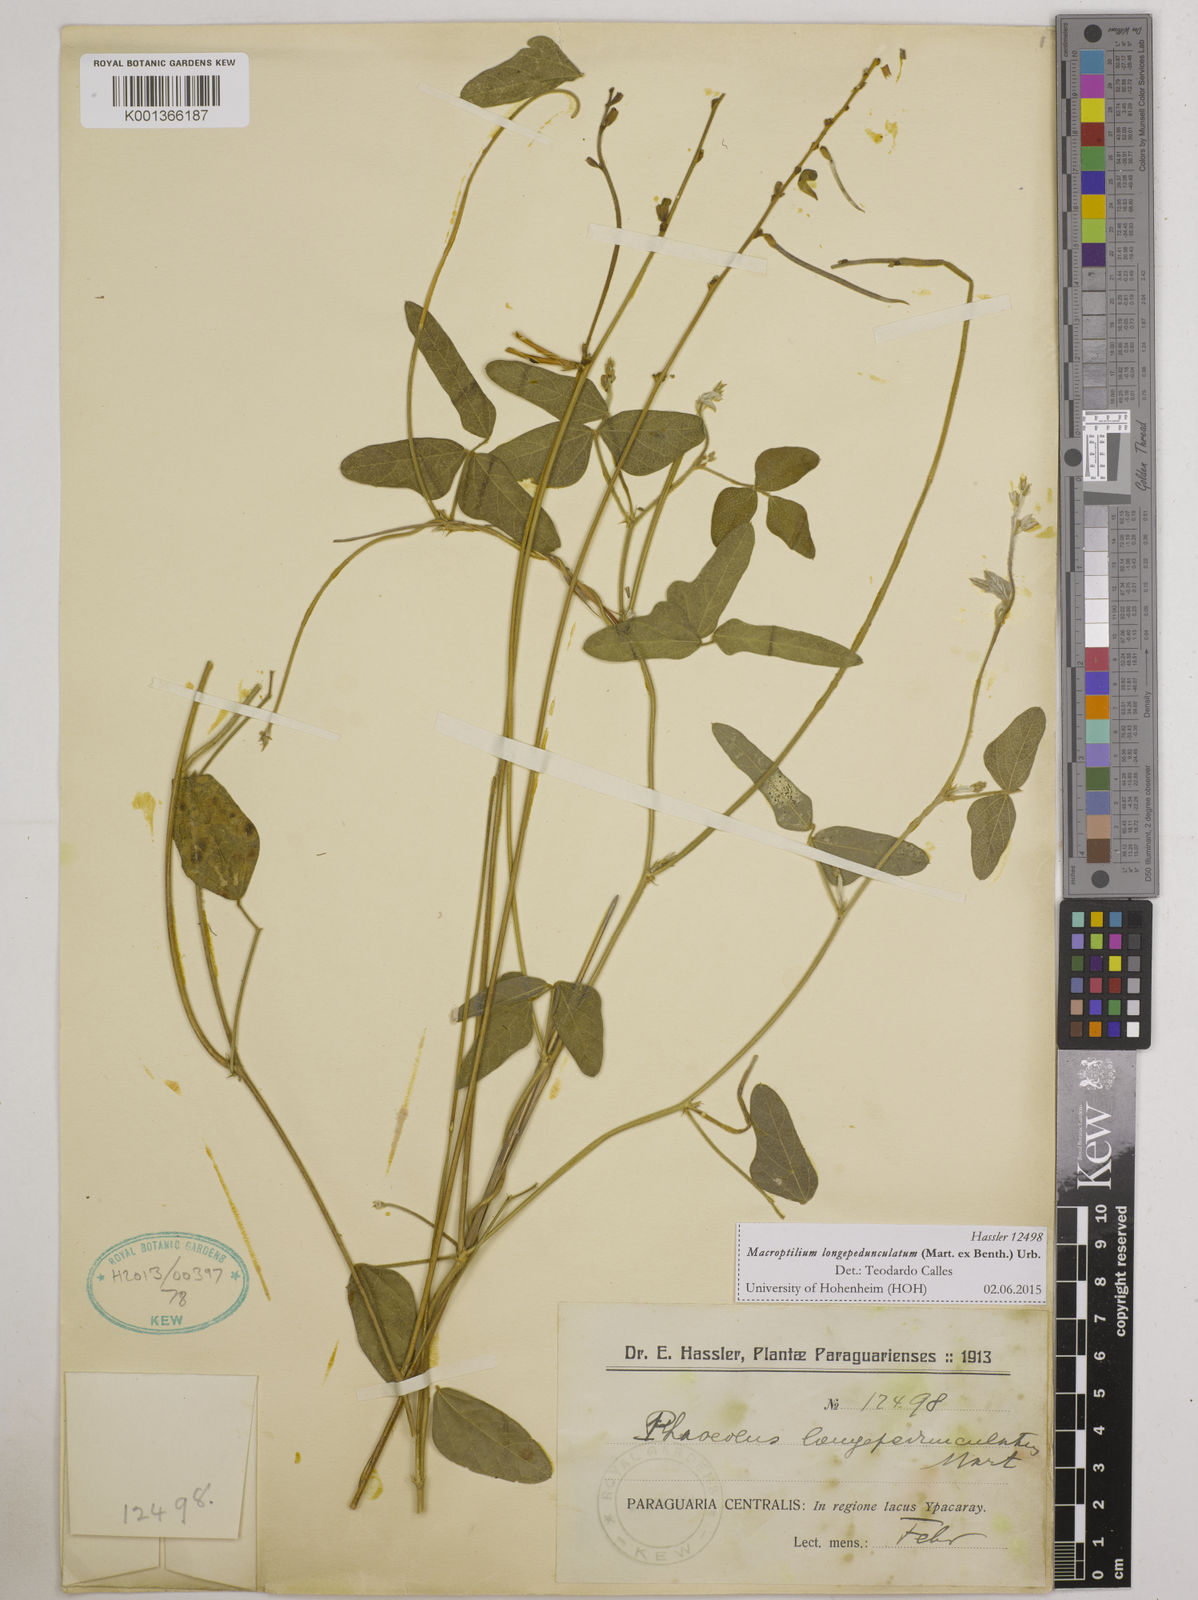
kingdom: Plantae
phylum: Tracheophyta
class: Magnoliopsida
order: Fabales
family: Fabaceae
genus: Macroptilium
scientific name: Macroptilium longepedunculatum
